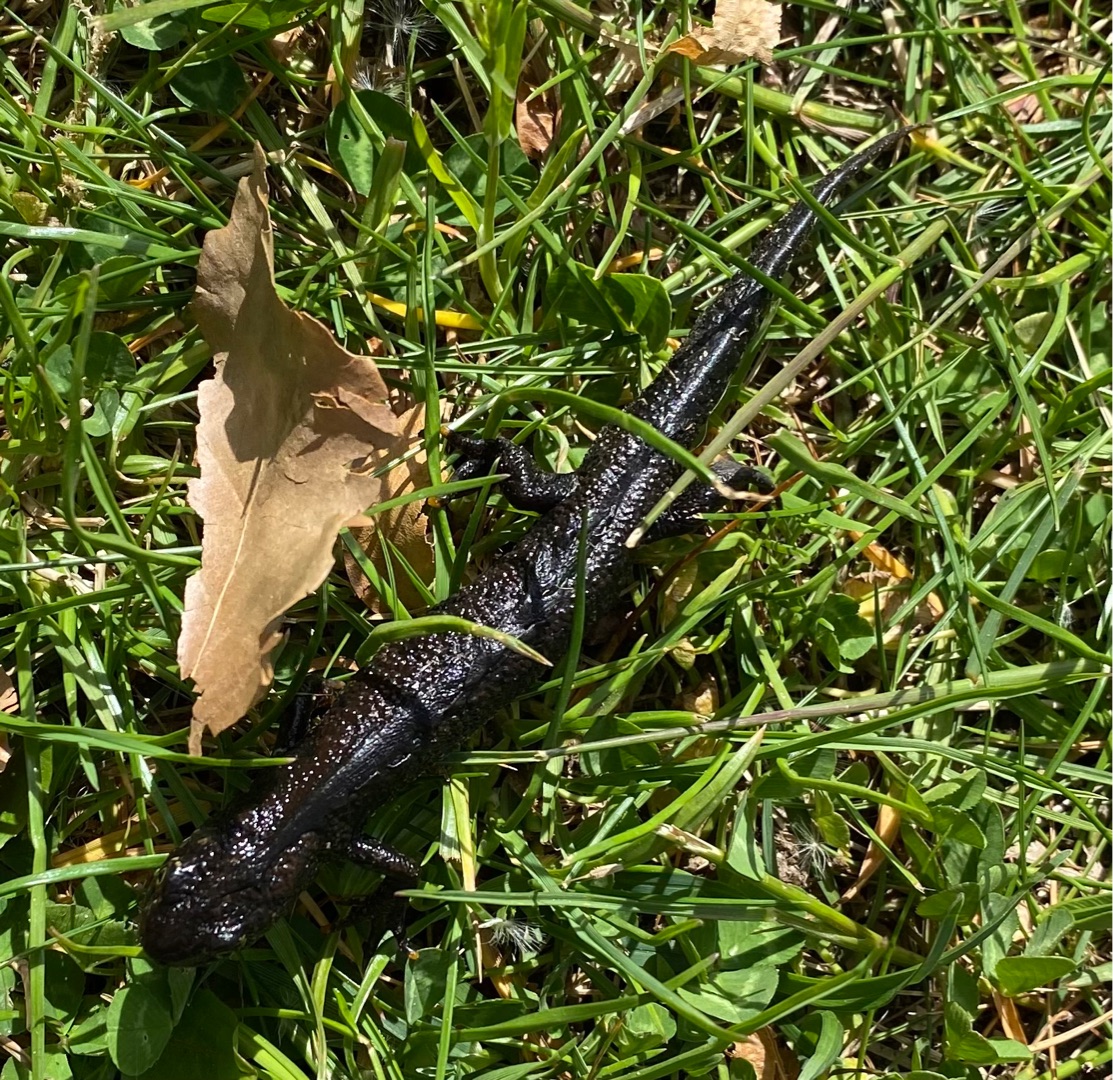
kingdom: Animalia
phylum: Chordata
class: Amphibia
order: Caudata
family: Salamandridae
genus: Triturus
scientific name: Triturus cristatus
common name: Stor vandsalamander
